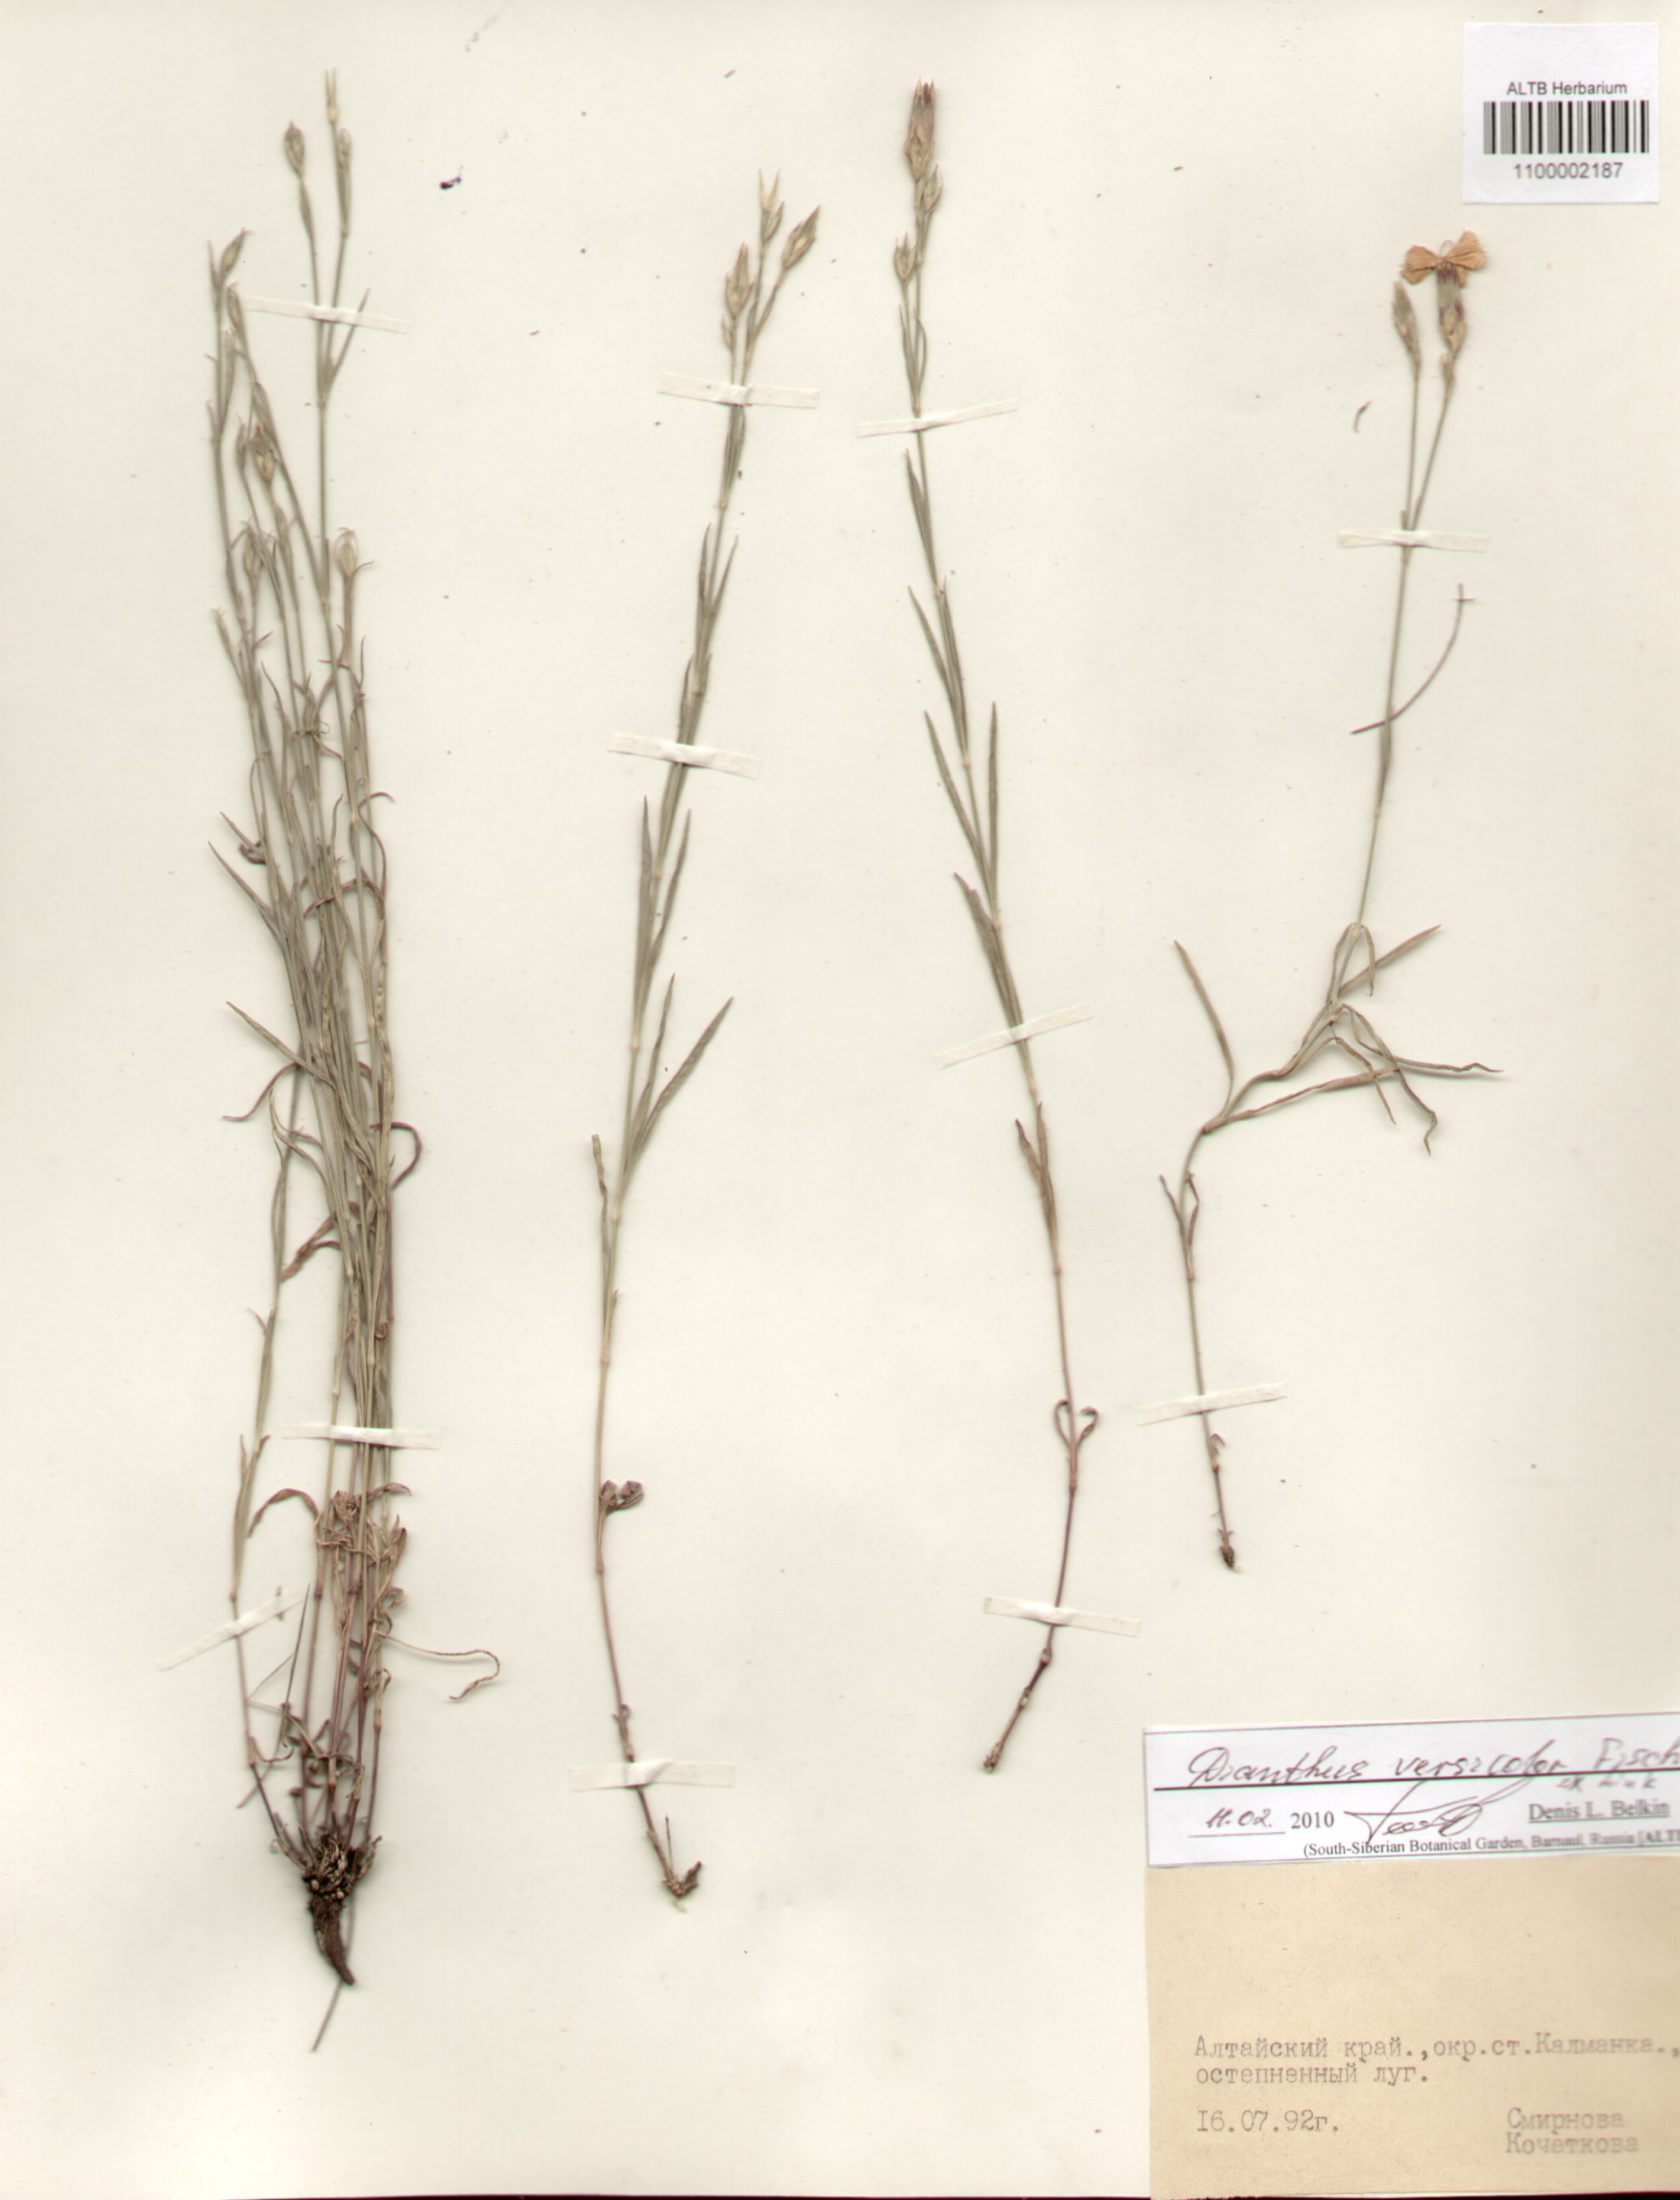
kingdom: Plantae
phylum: Tracheophyta
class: Magnoliopsida
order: Caryophyllales
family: Caryophyllaceae
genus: Dianthus
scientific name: Dianthus chinensis
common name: Rainbow pink
